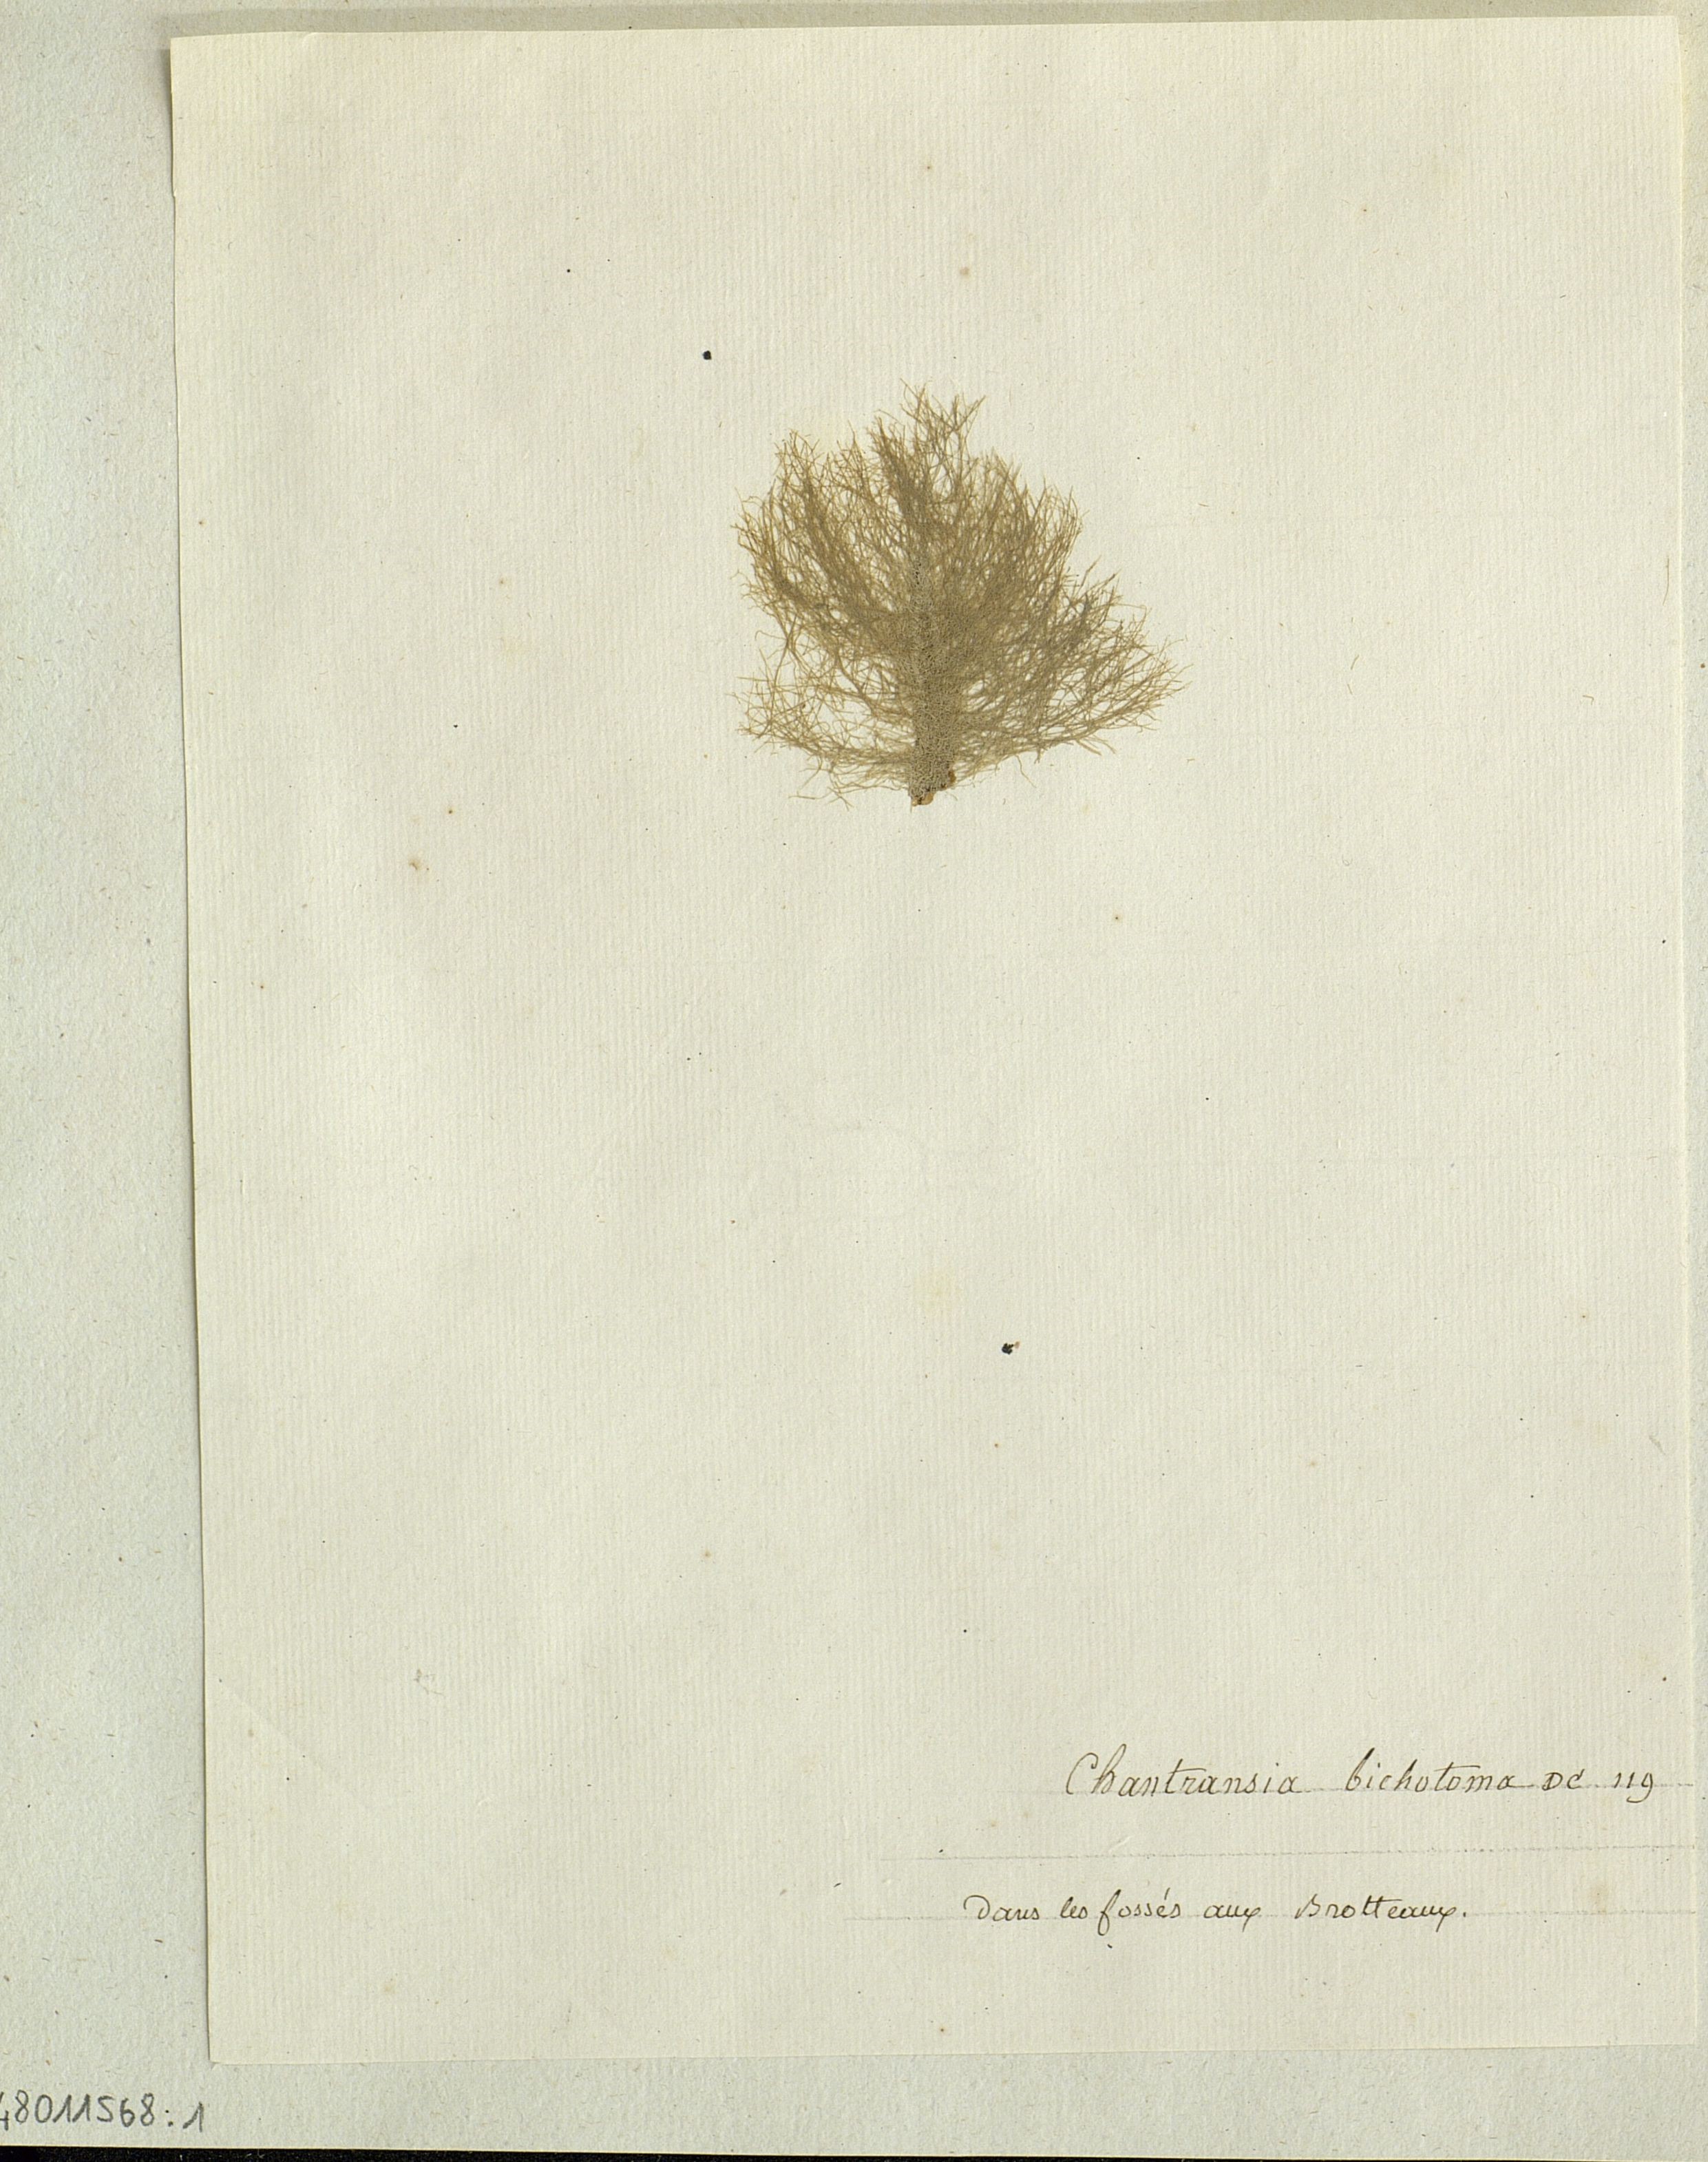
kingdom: Plantae
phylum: Rhodophyta
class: Florideophyceae
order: Batrachospermales
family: Lemaneaceae
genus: Lemanea
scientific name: Lemanea
